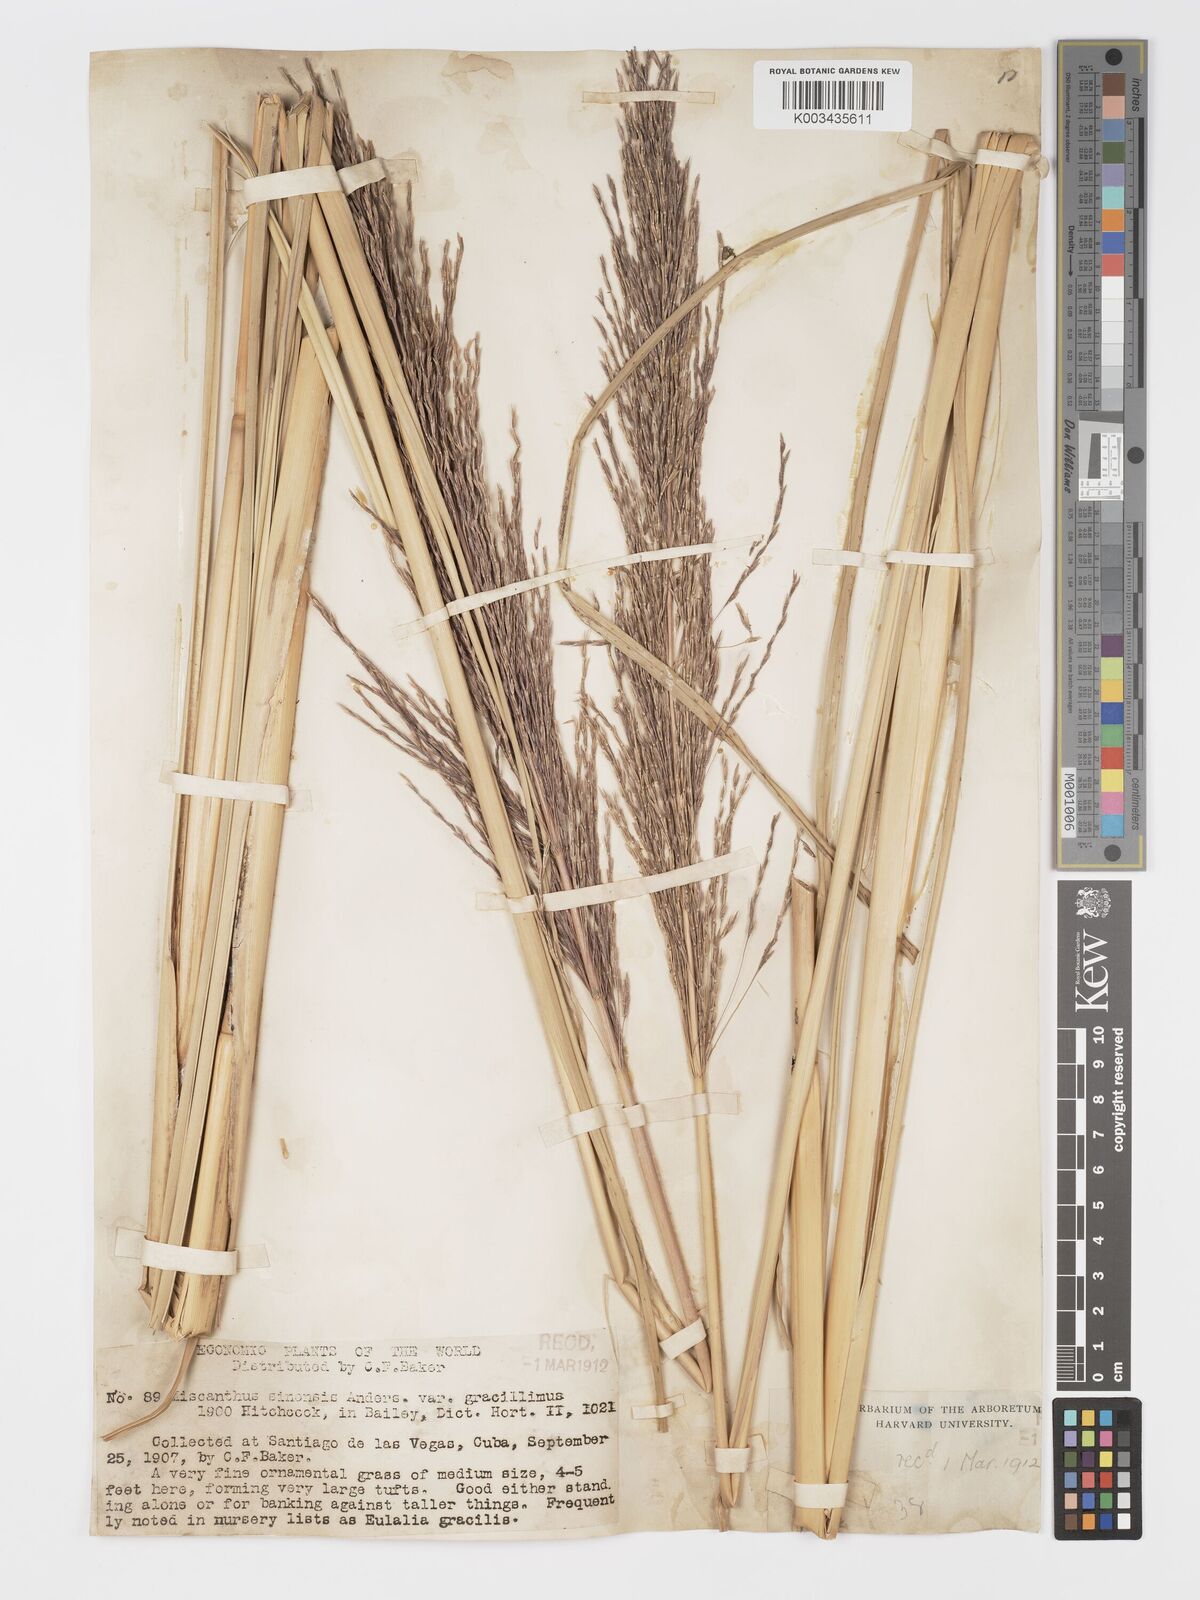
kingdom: Plantae
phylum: Tracheophyta
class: Liliopsida
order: Poales
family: Poaceae
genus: Chrysopogon
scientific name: Chrysopogon zizanioides
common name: False beardgrass
